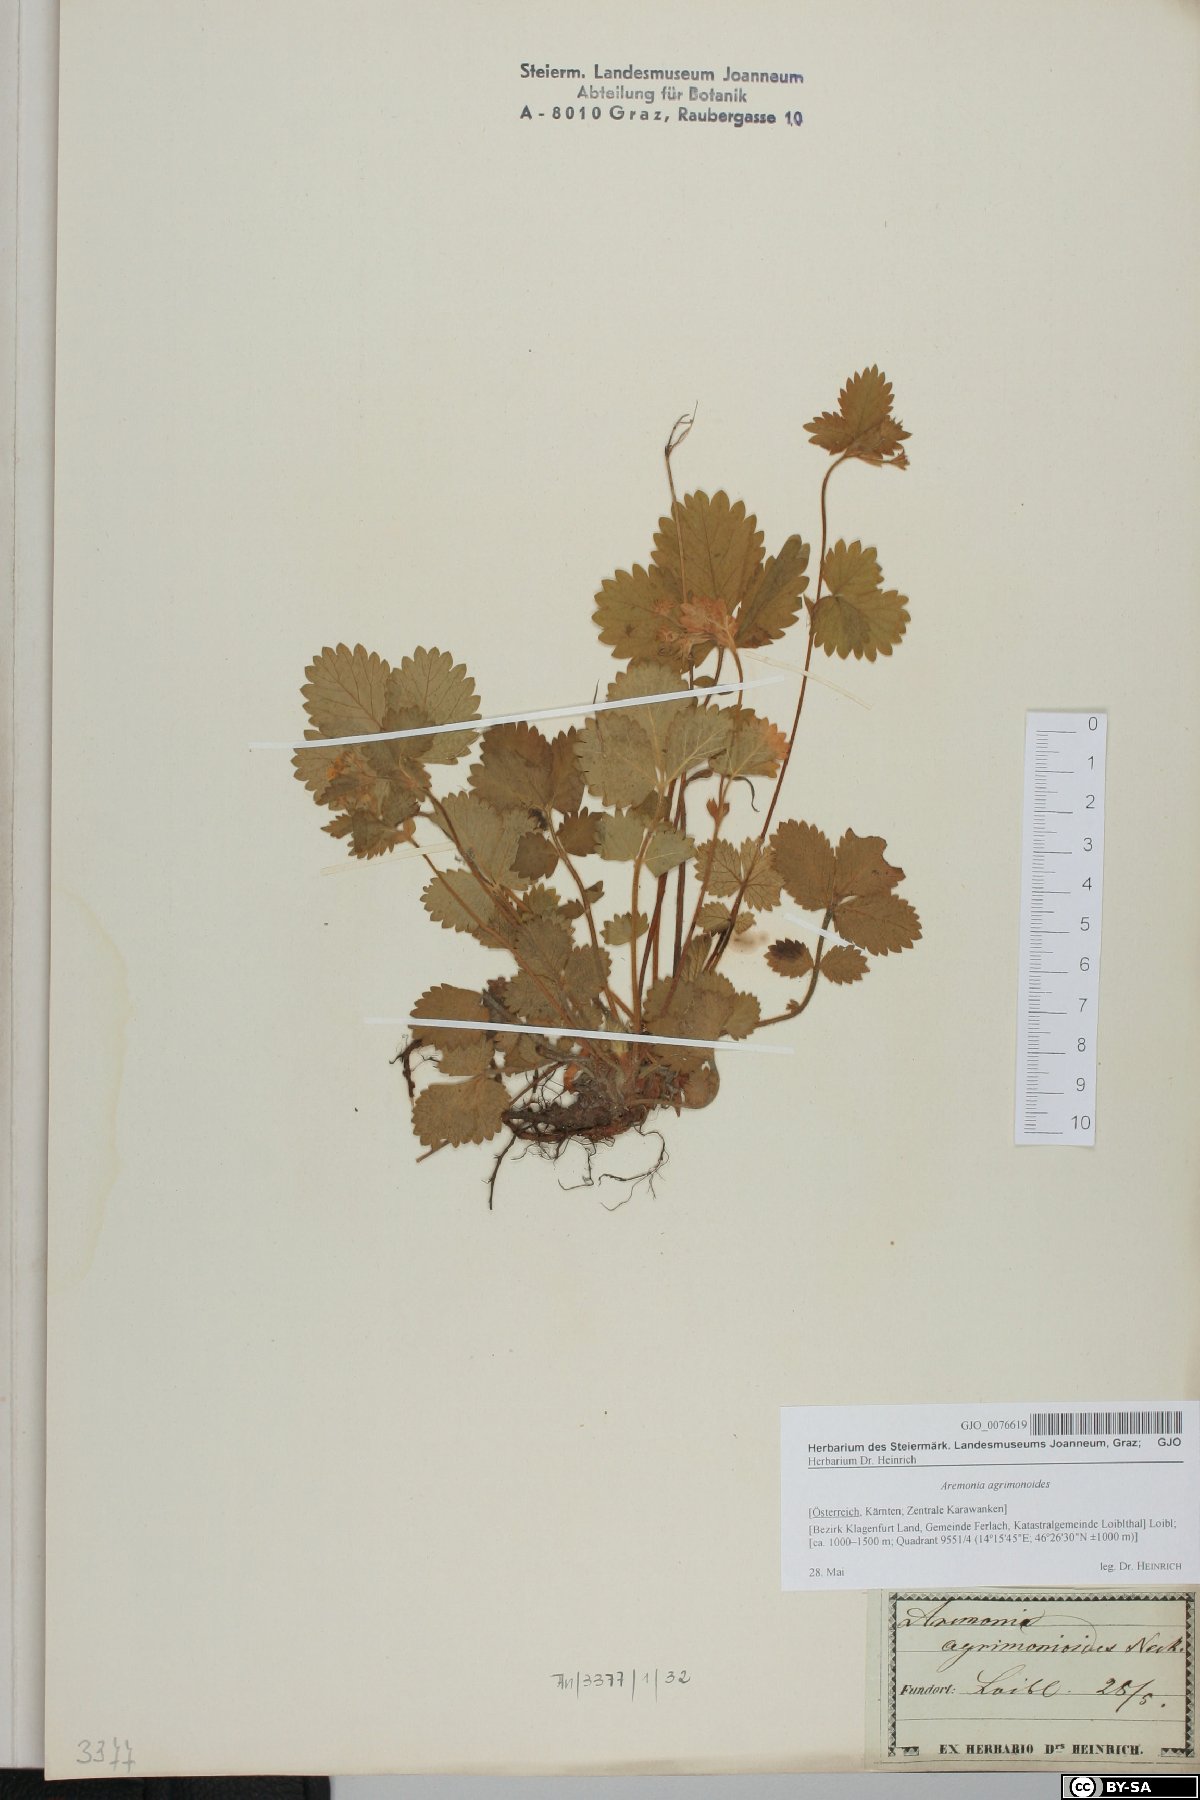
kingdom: Plantae
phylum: Tracheophyta
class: Magnoliopsida
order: Rosales
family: Rosaceae
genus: Aremonia
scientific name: Aremonia agrimonoides
